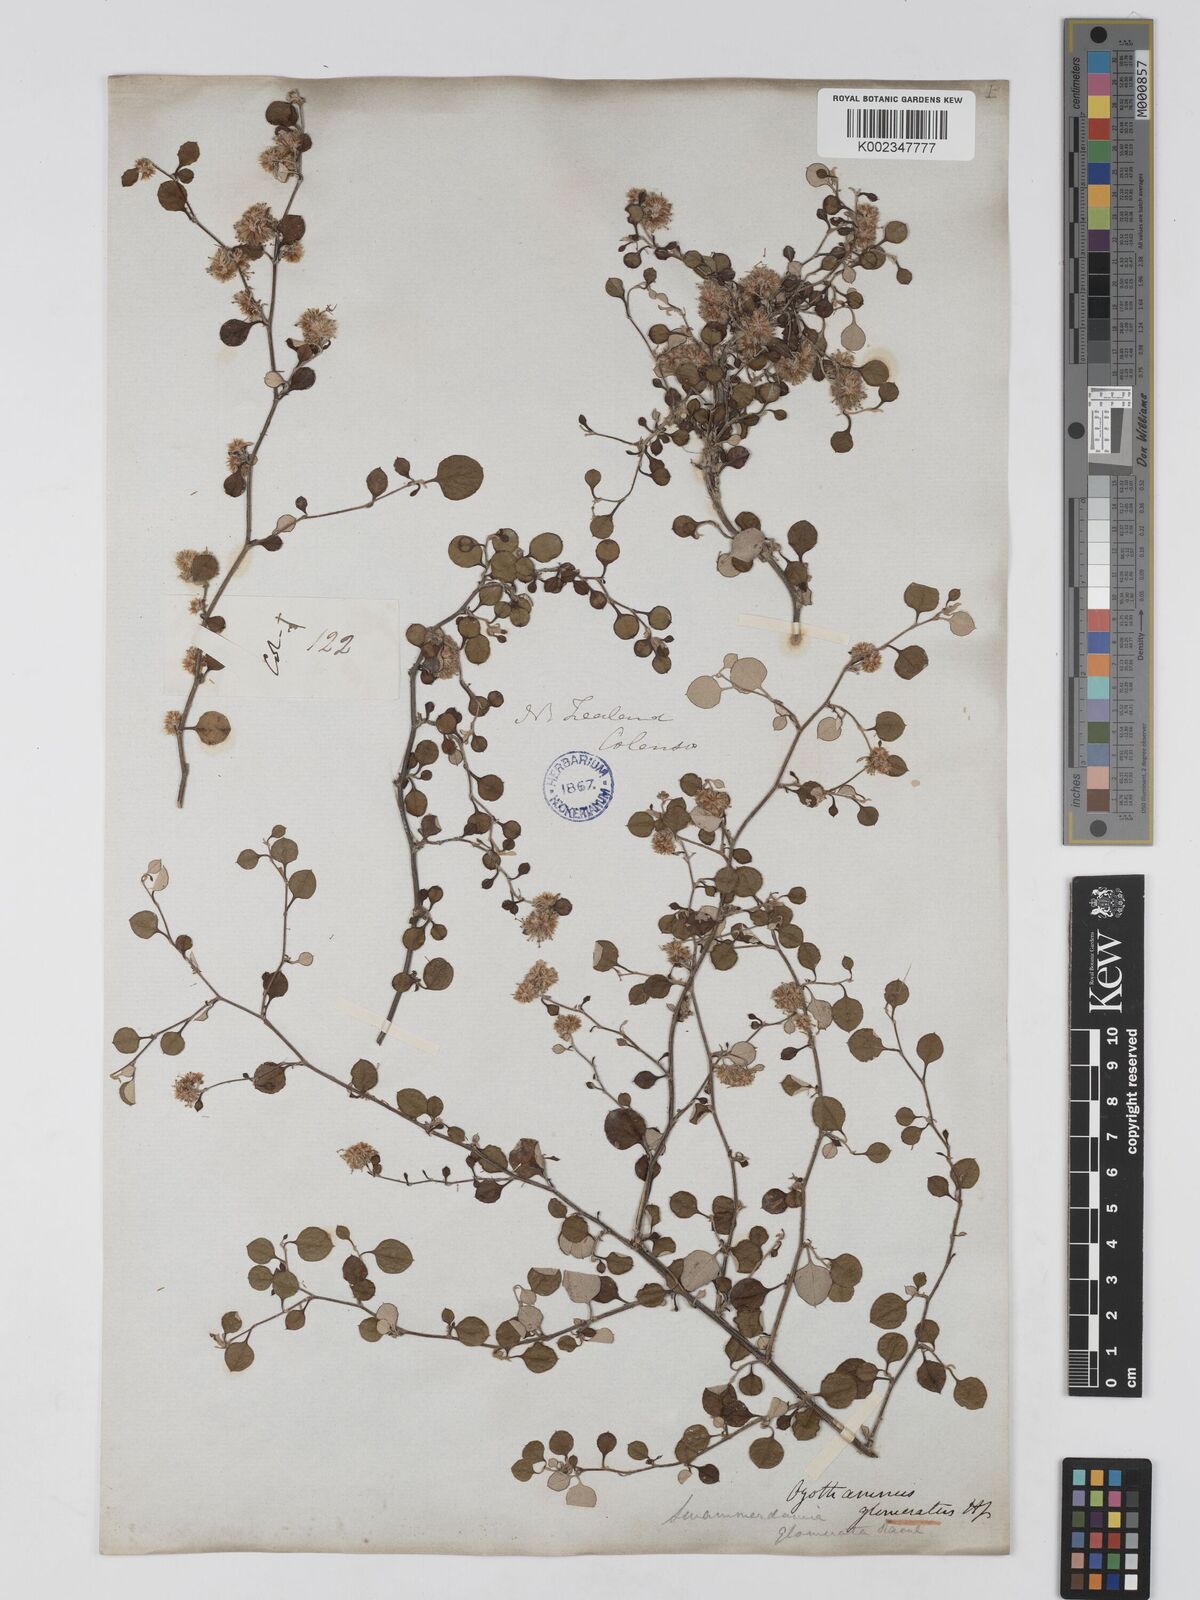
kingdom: Plantae
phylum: Tracheophyta
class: Magnoliopsida
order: Asterales
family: Asteraceae
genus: Ozothamnus
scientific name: Ozothamnus glomeratus
